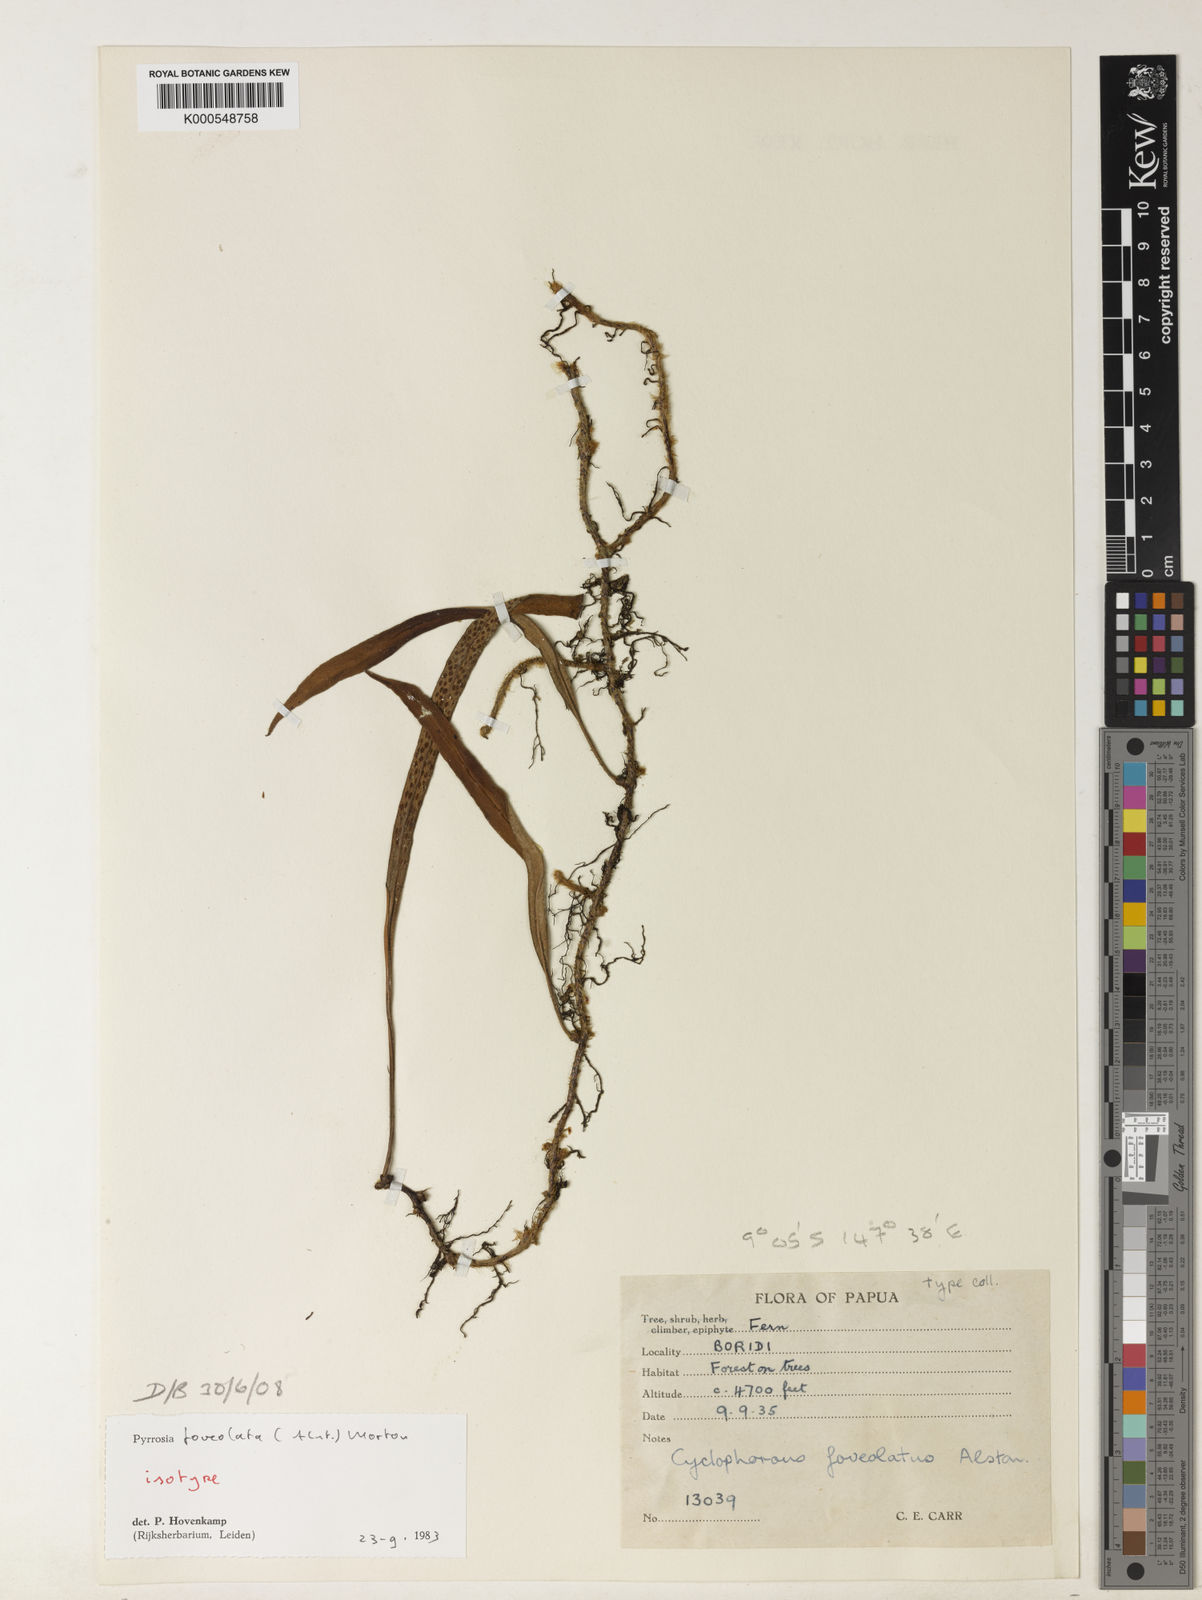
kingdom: Plantae
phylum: Tracheophyta
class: Polypodiopsida
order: Polypodiales
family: Polypodiaceae
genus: Pyrrosia
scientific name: Pyrrosia foveolata
